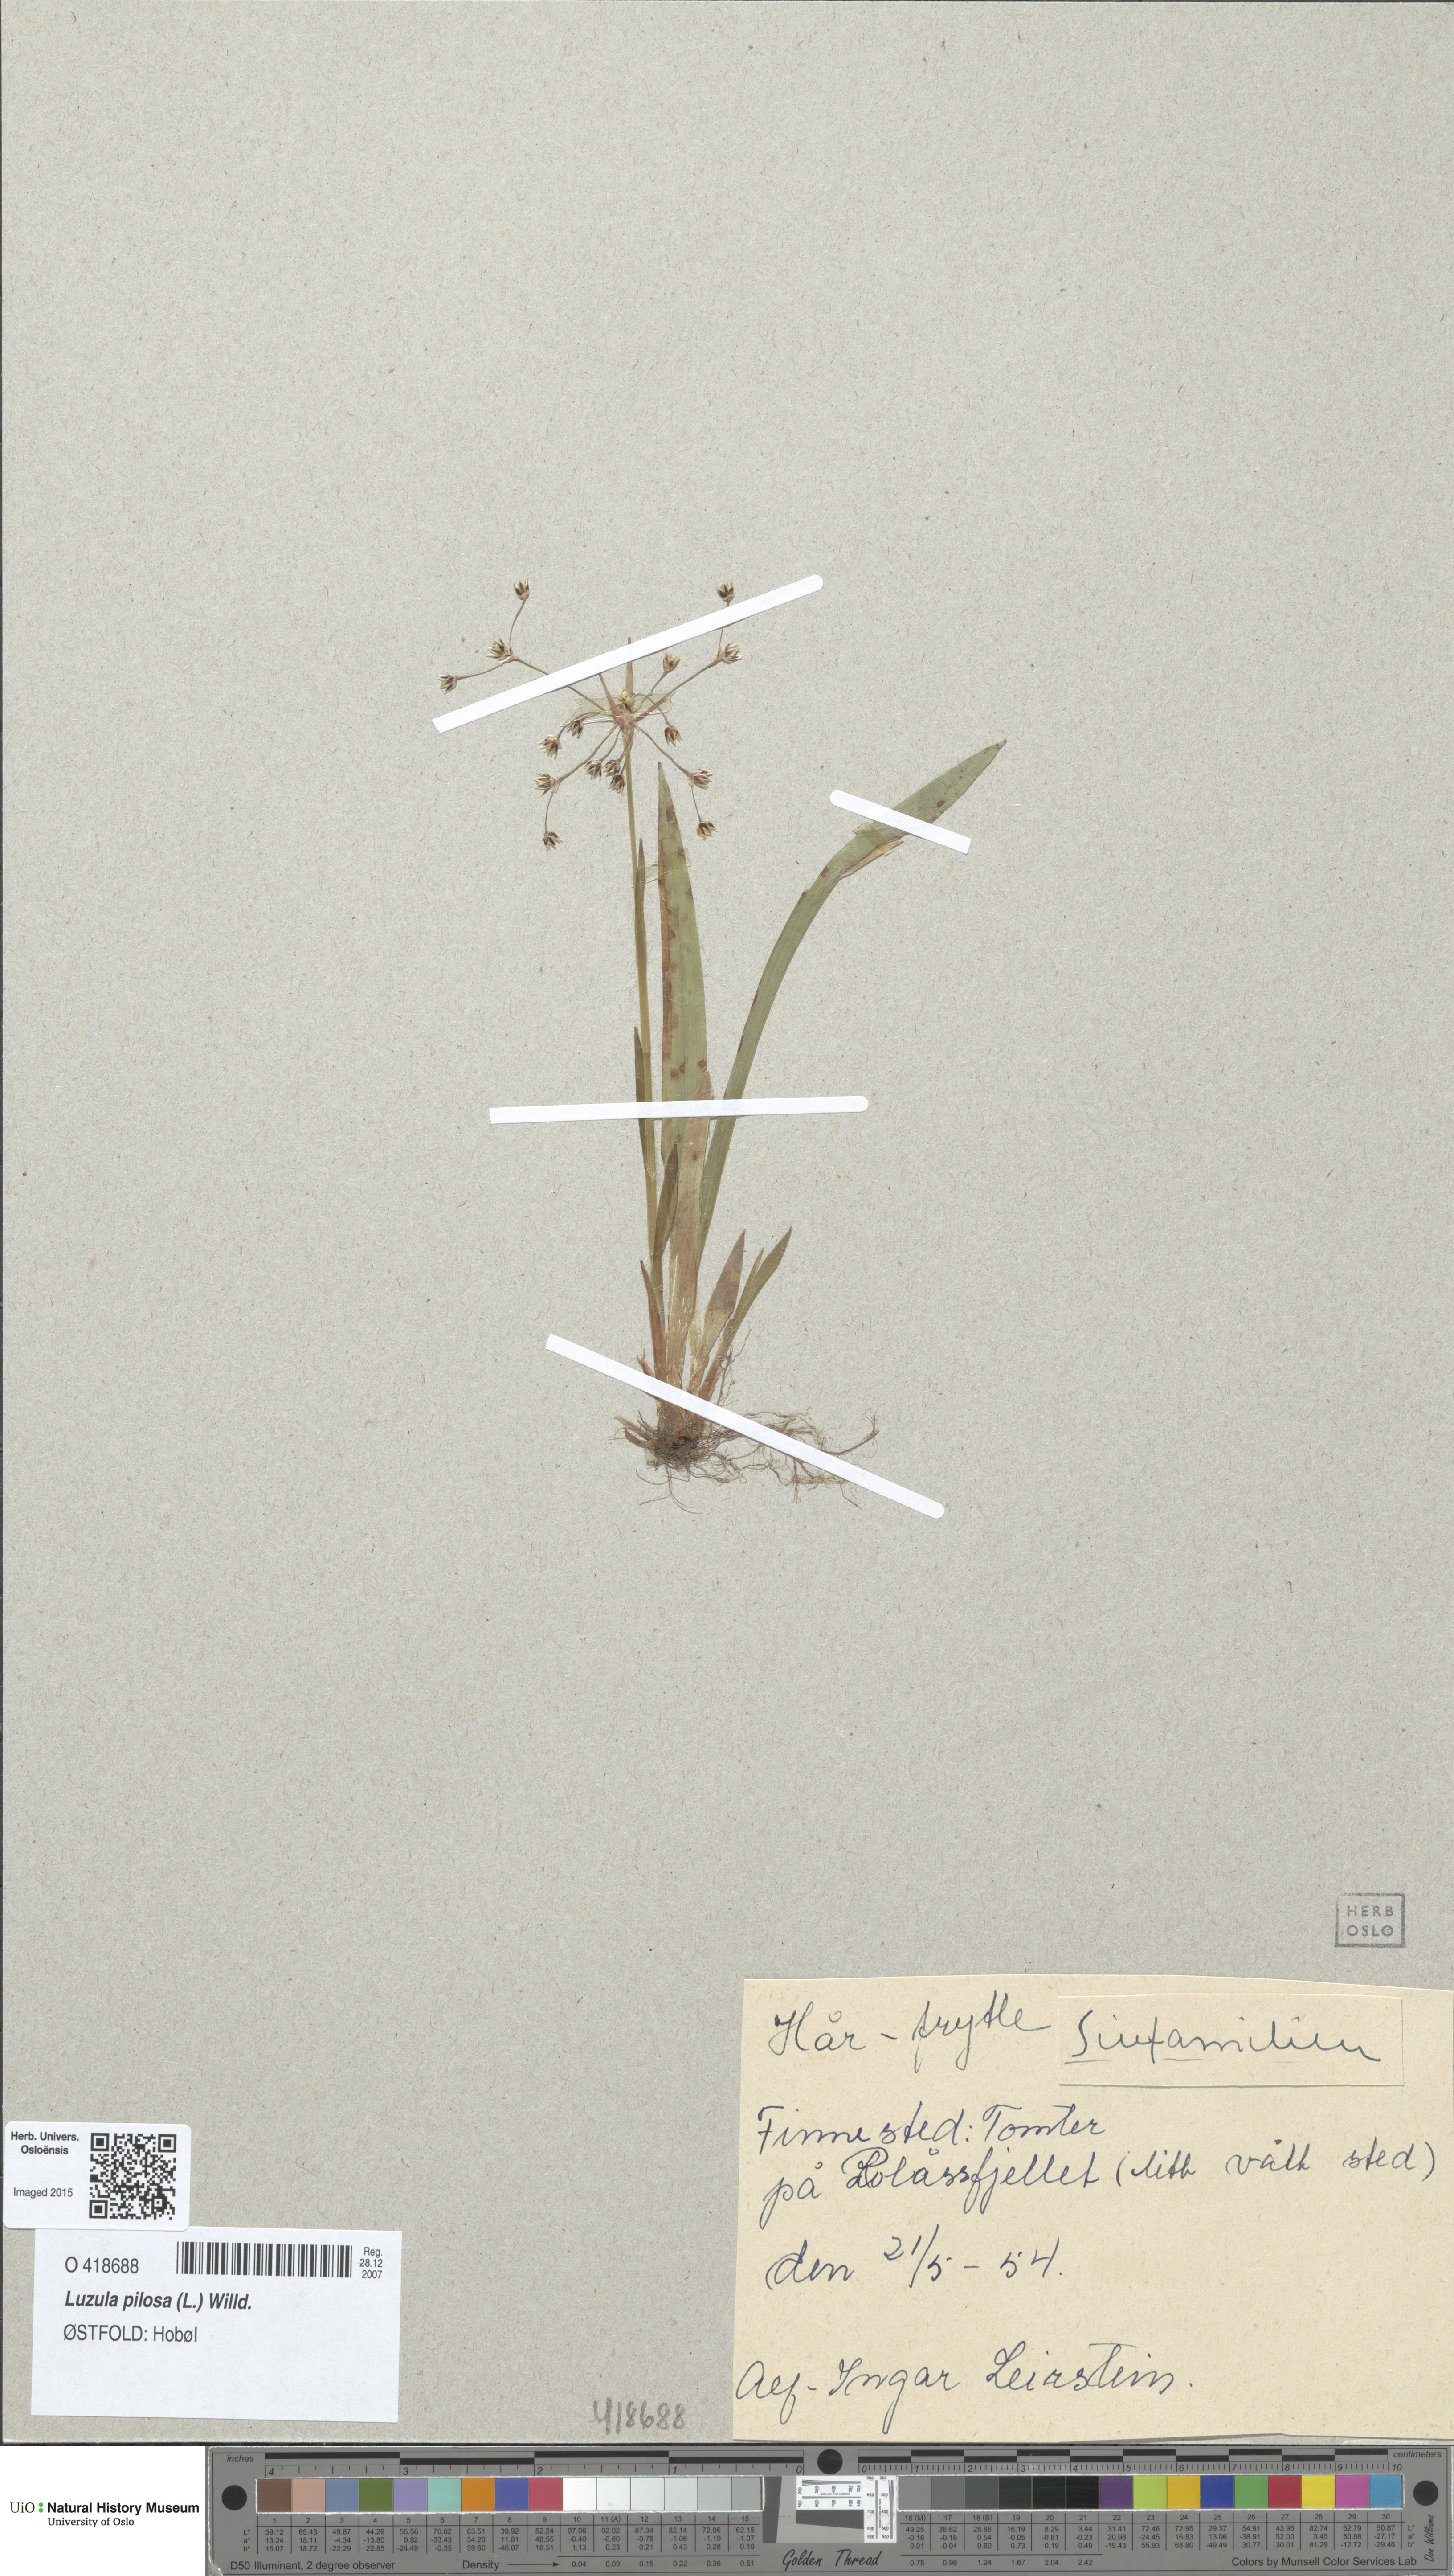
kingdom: Plantae
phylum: Tracheophyta
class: Liliopsida
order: Poales
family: Juncaceae
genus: Luzula
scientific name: Luzula pilosa
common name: Hairy wood-rush
